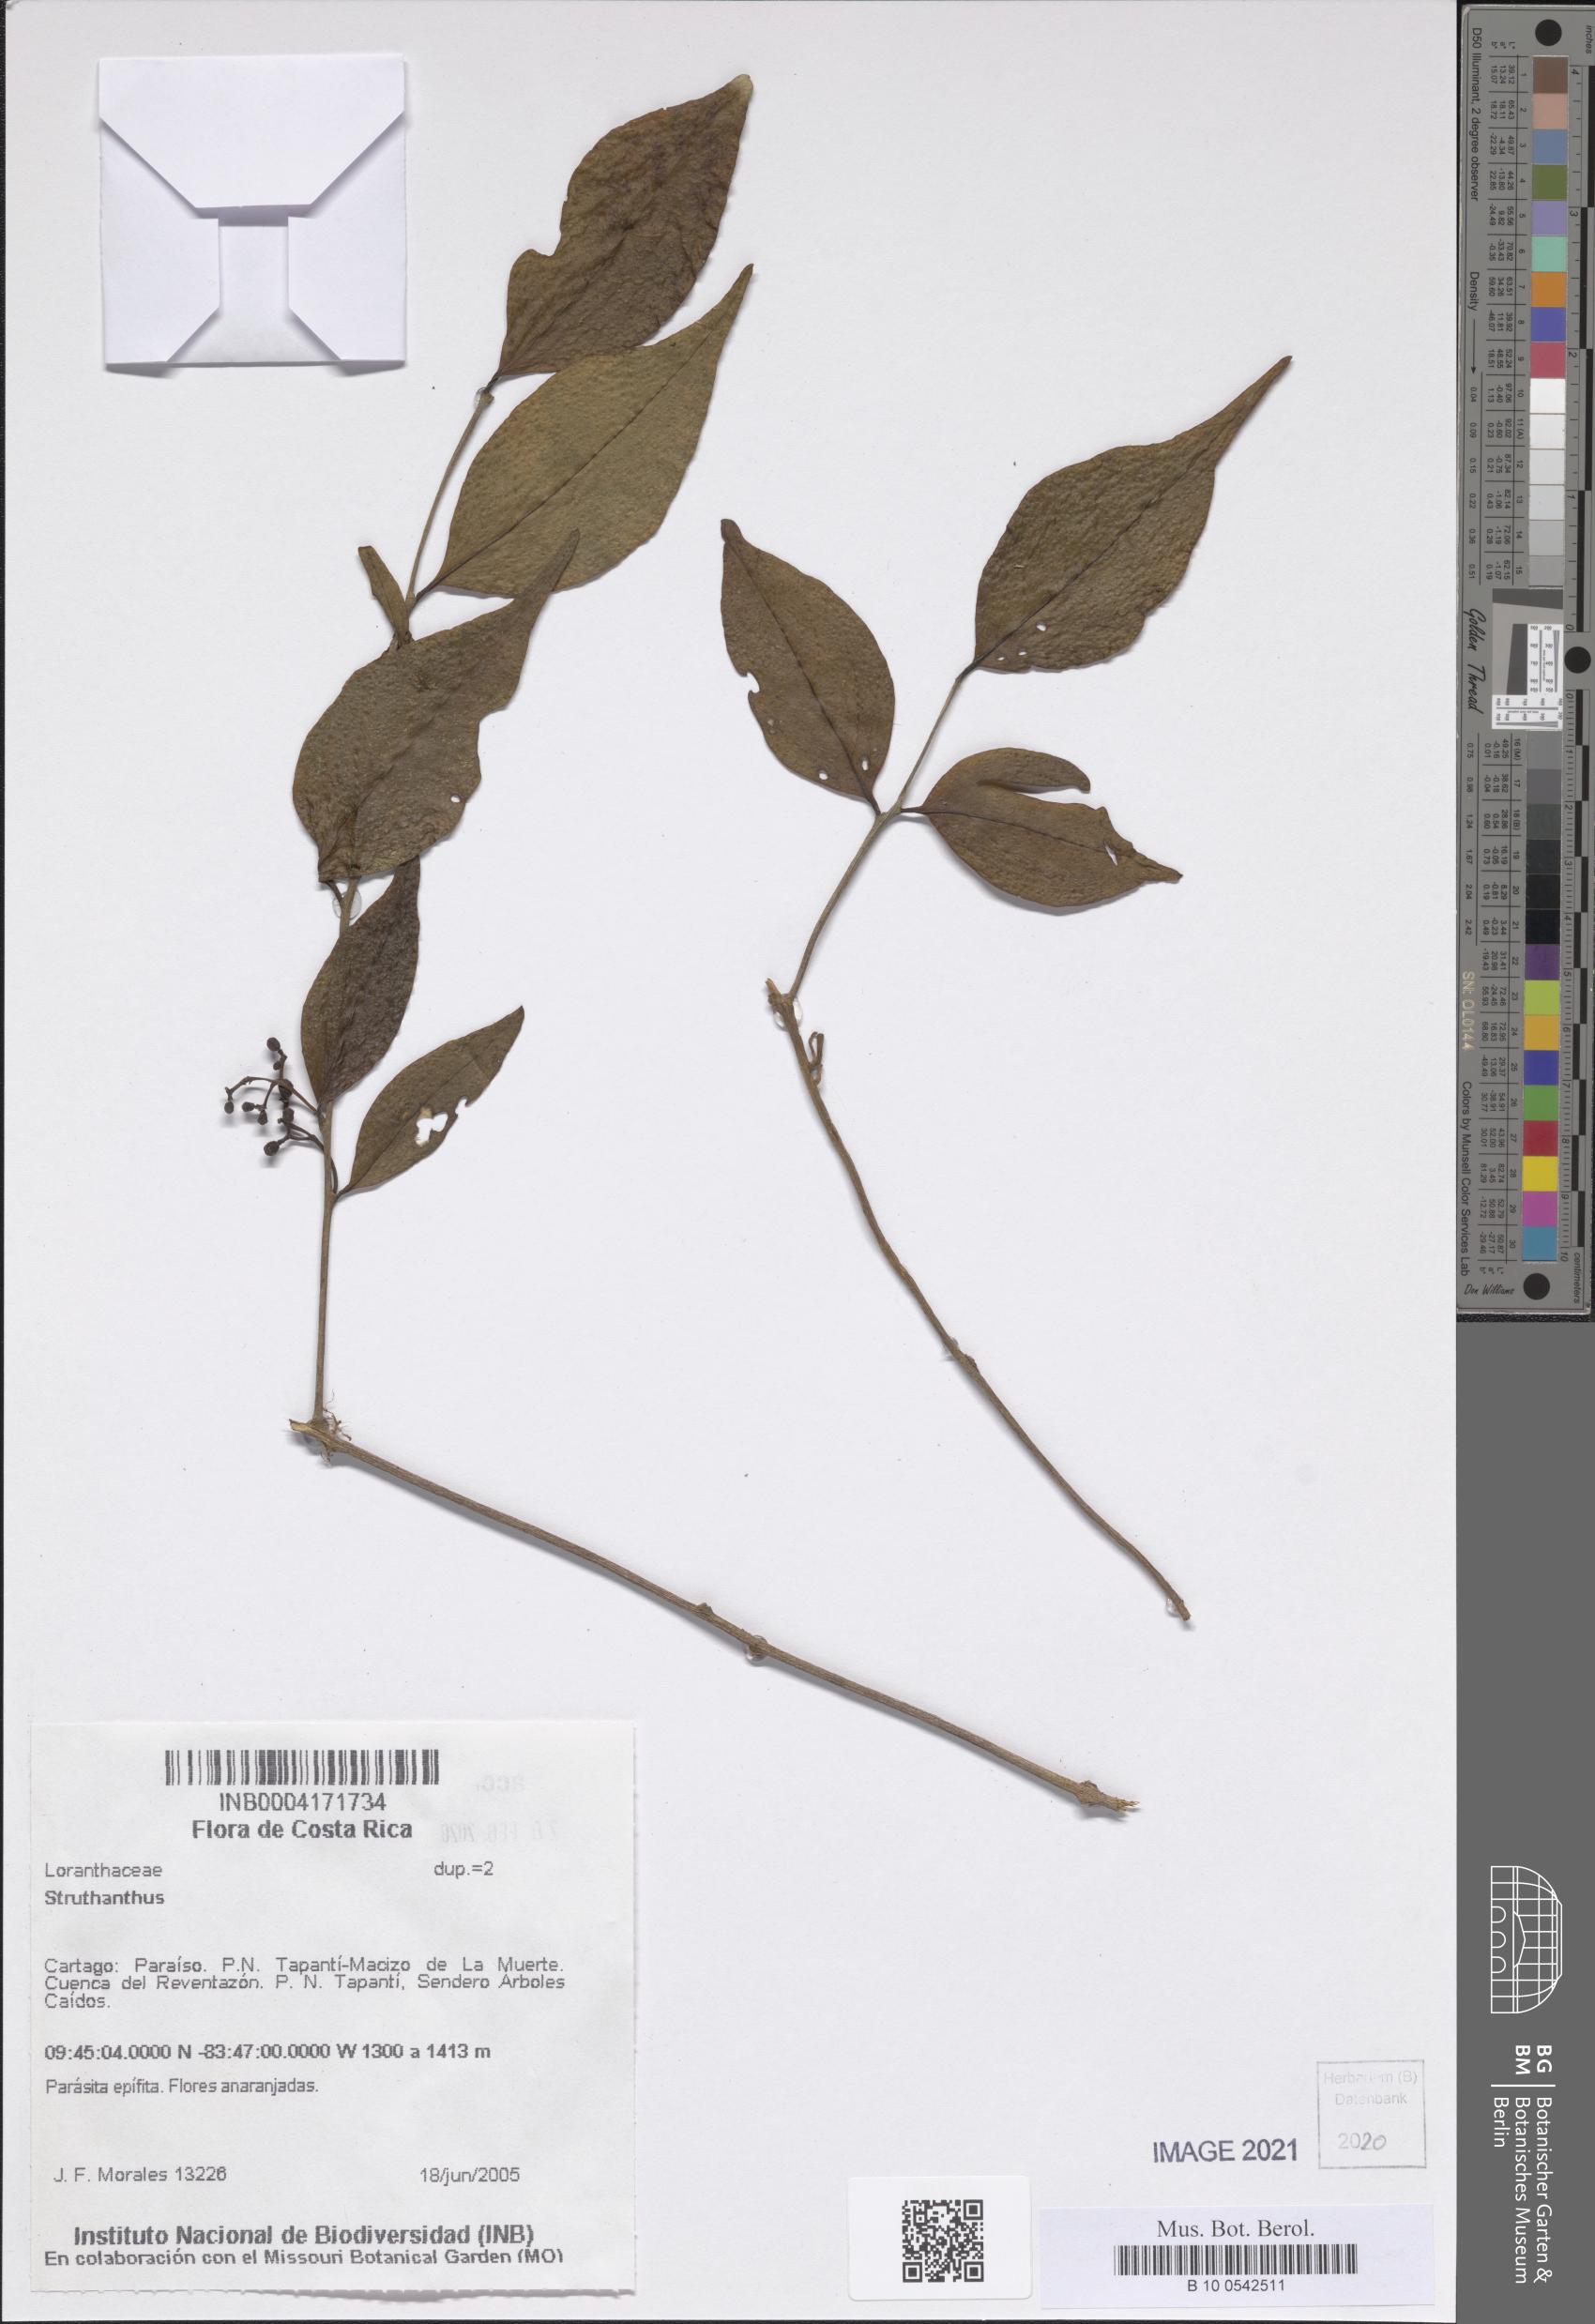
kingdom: Plantae
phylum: Tracheophyta
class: Magnoliopsida
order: Santalales
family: Loranthaceae
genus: Struthanthus
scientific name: Struthanthus
